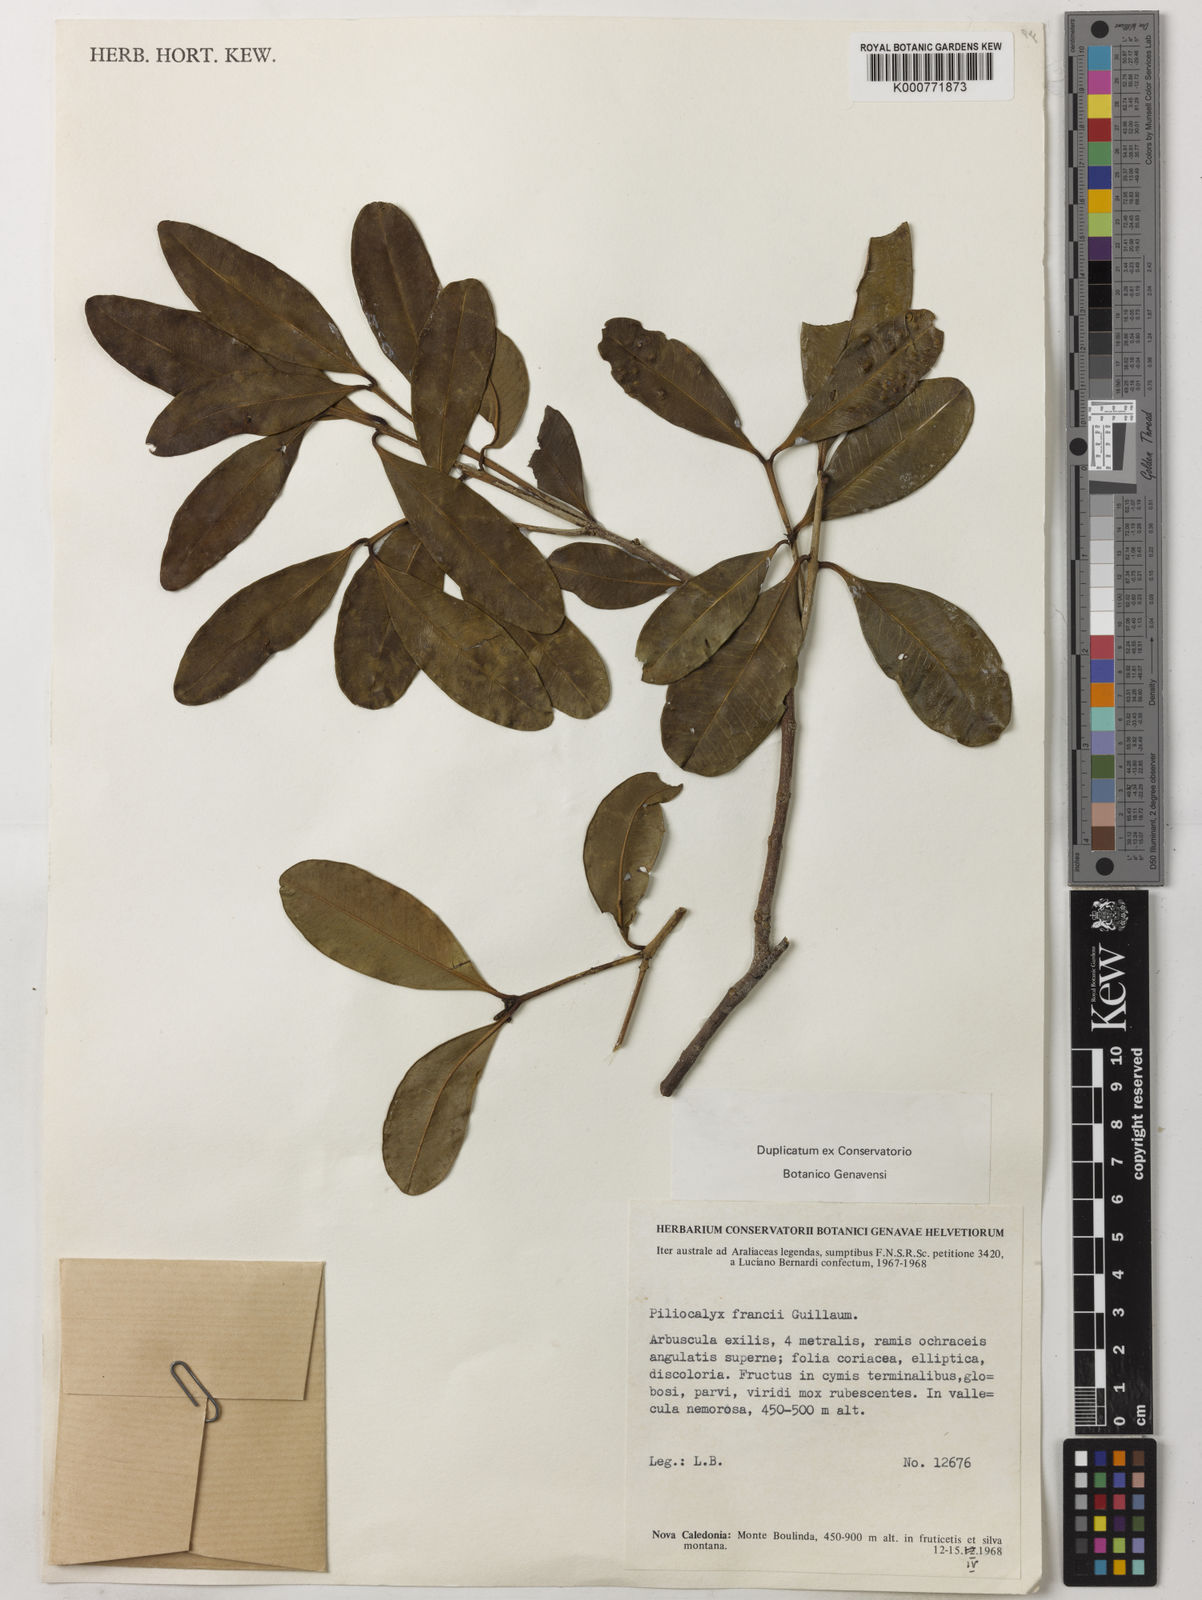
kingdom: Plantae
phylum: Tracheophyta
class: Magnoliopsida
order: Myrtales
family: Myrtaceae
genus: Syzygium
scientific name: Syzygium francii
